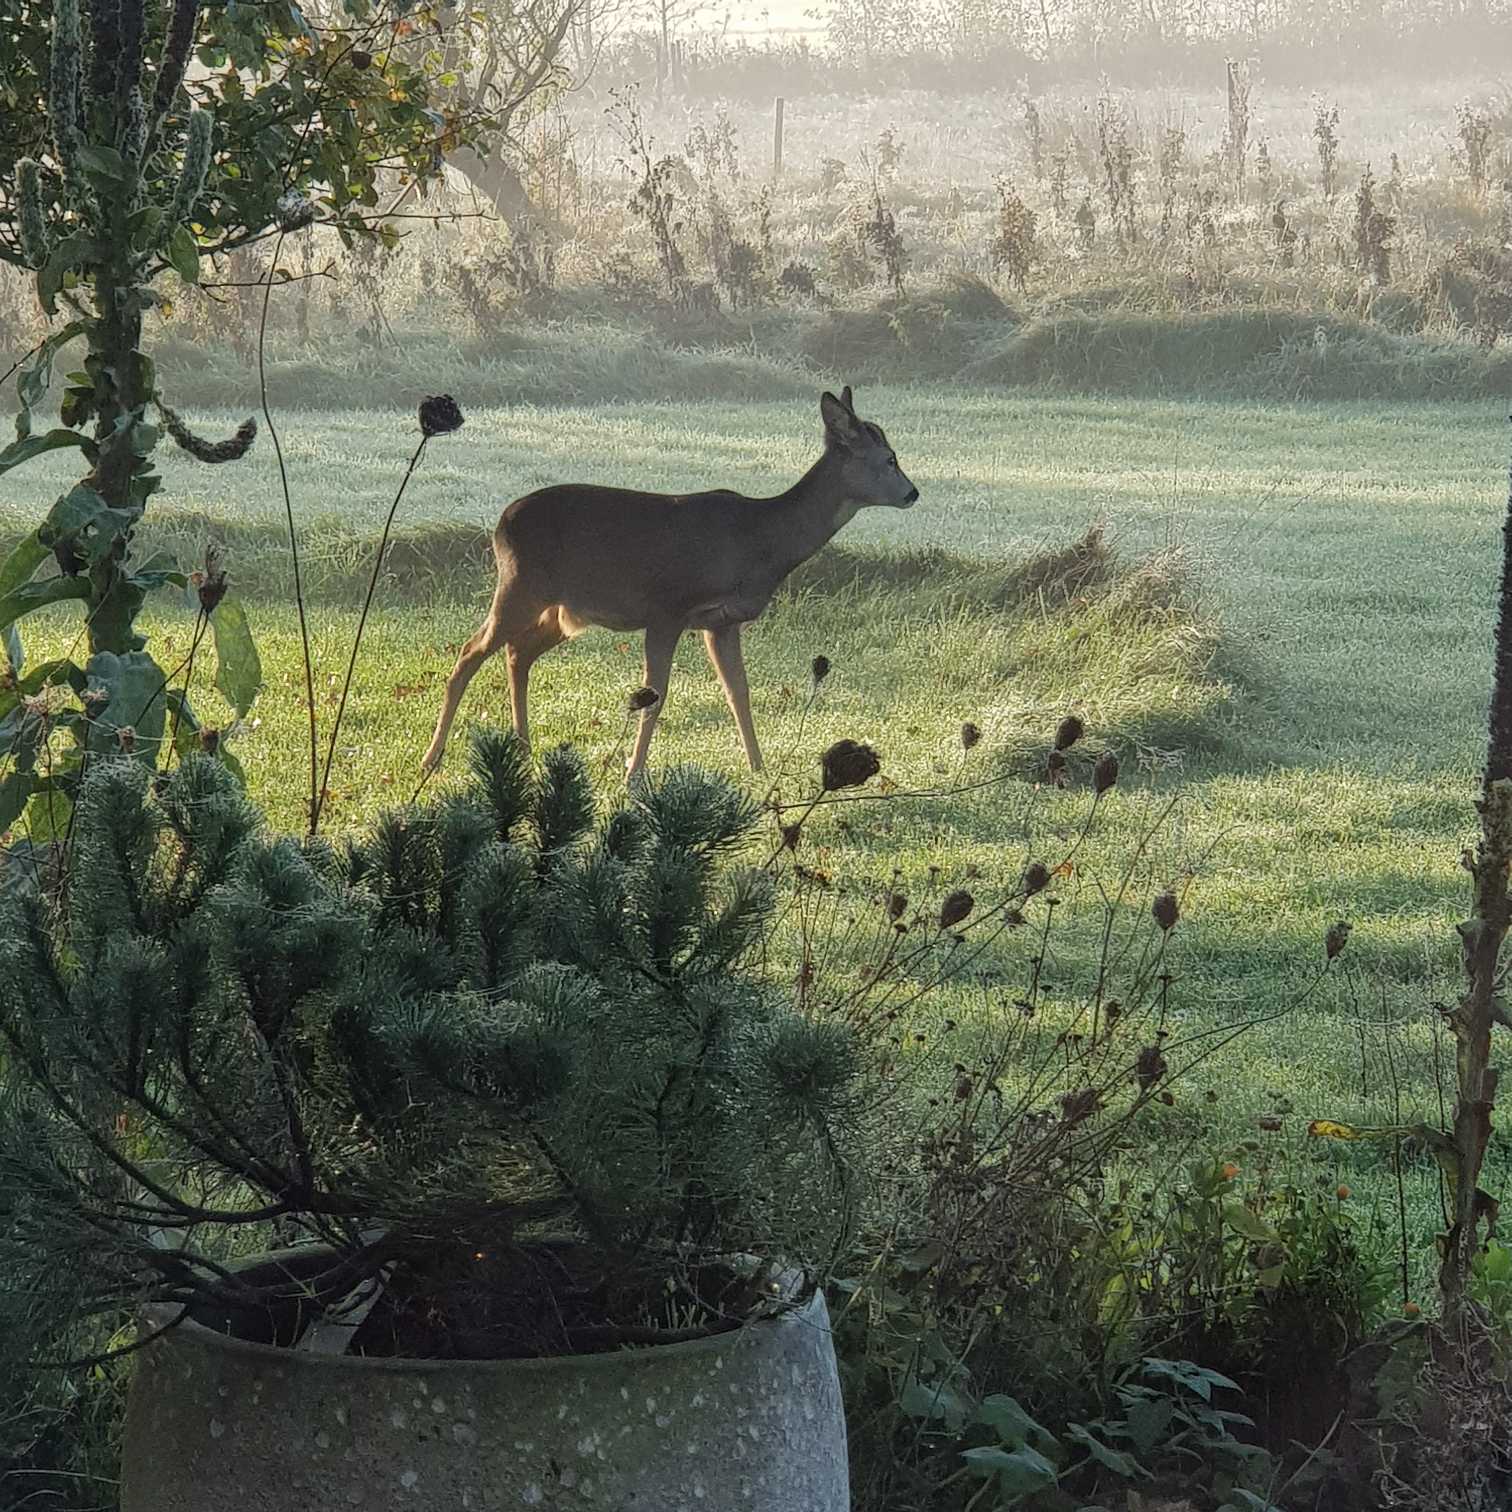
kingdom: Animalia
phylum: Chordata
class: Mammalia
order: Artiodactyla
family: Cervidae
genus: Capreolus
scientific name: Capreolus capreolus
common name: Rådyr
